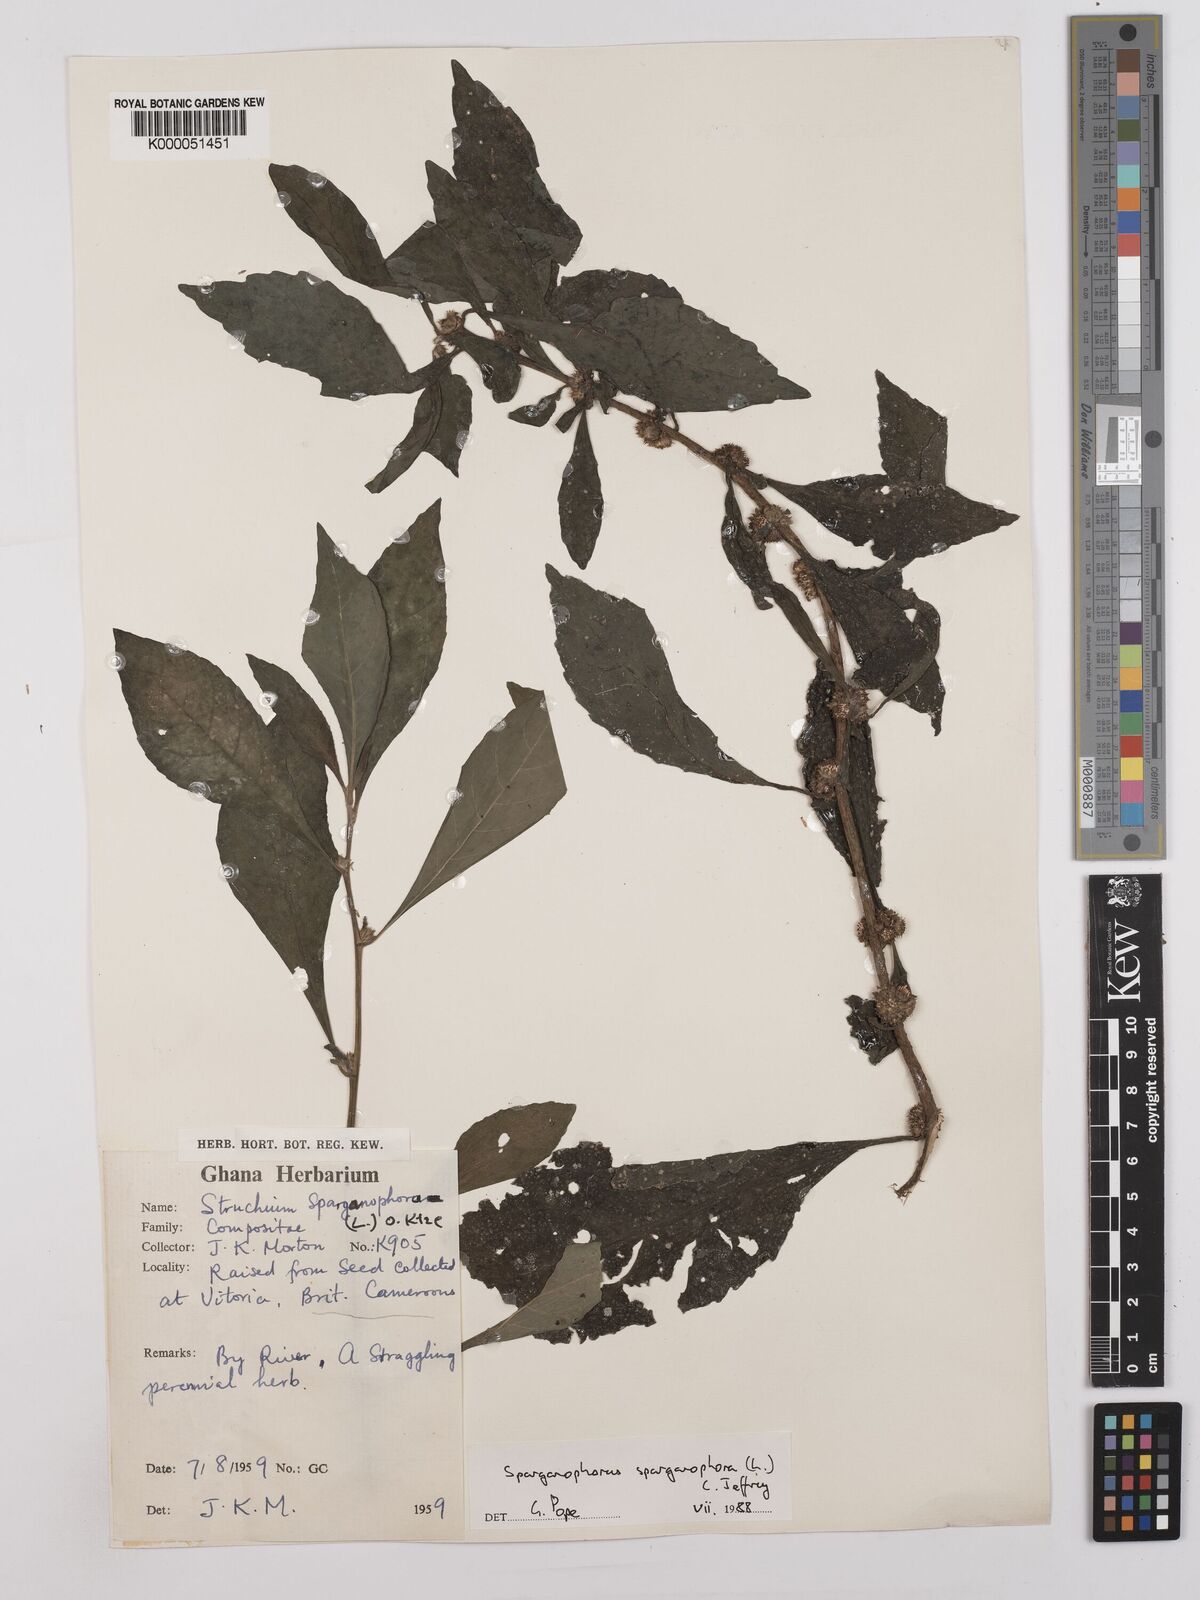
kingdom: Plantae
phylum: Tracheophyta
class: Magnoliopsida
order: Asterales
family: Asteraceae
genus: Struchium
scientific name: Struchium sparganophorum
